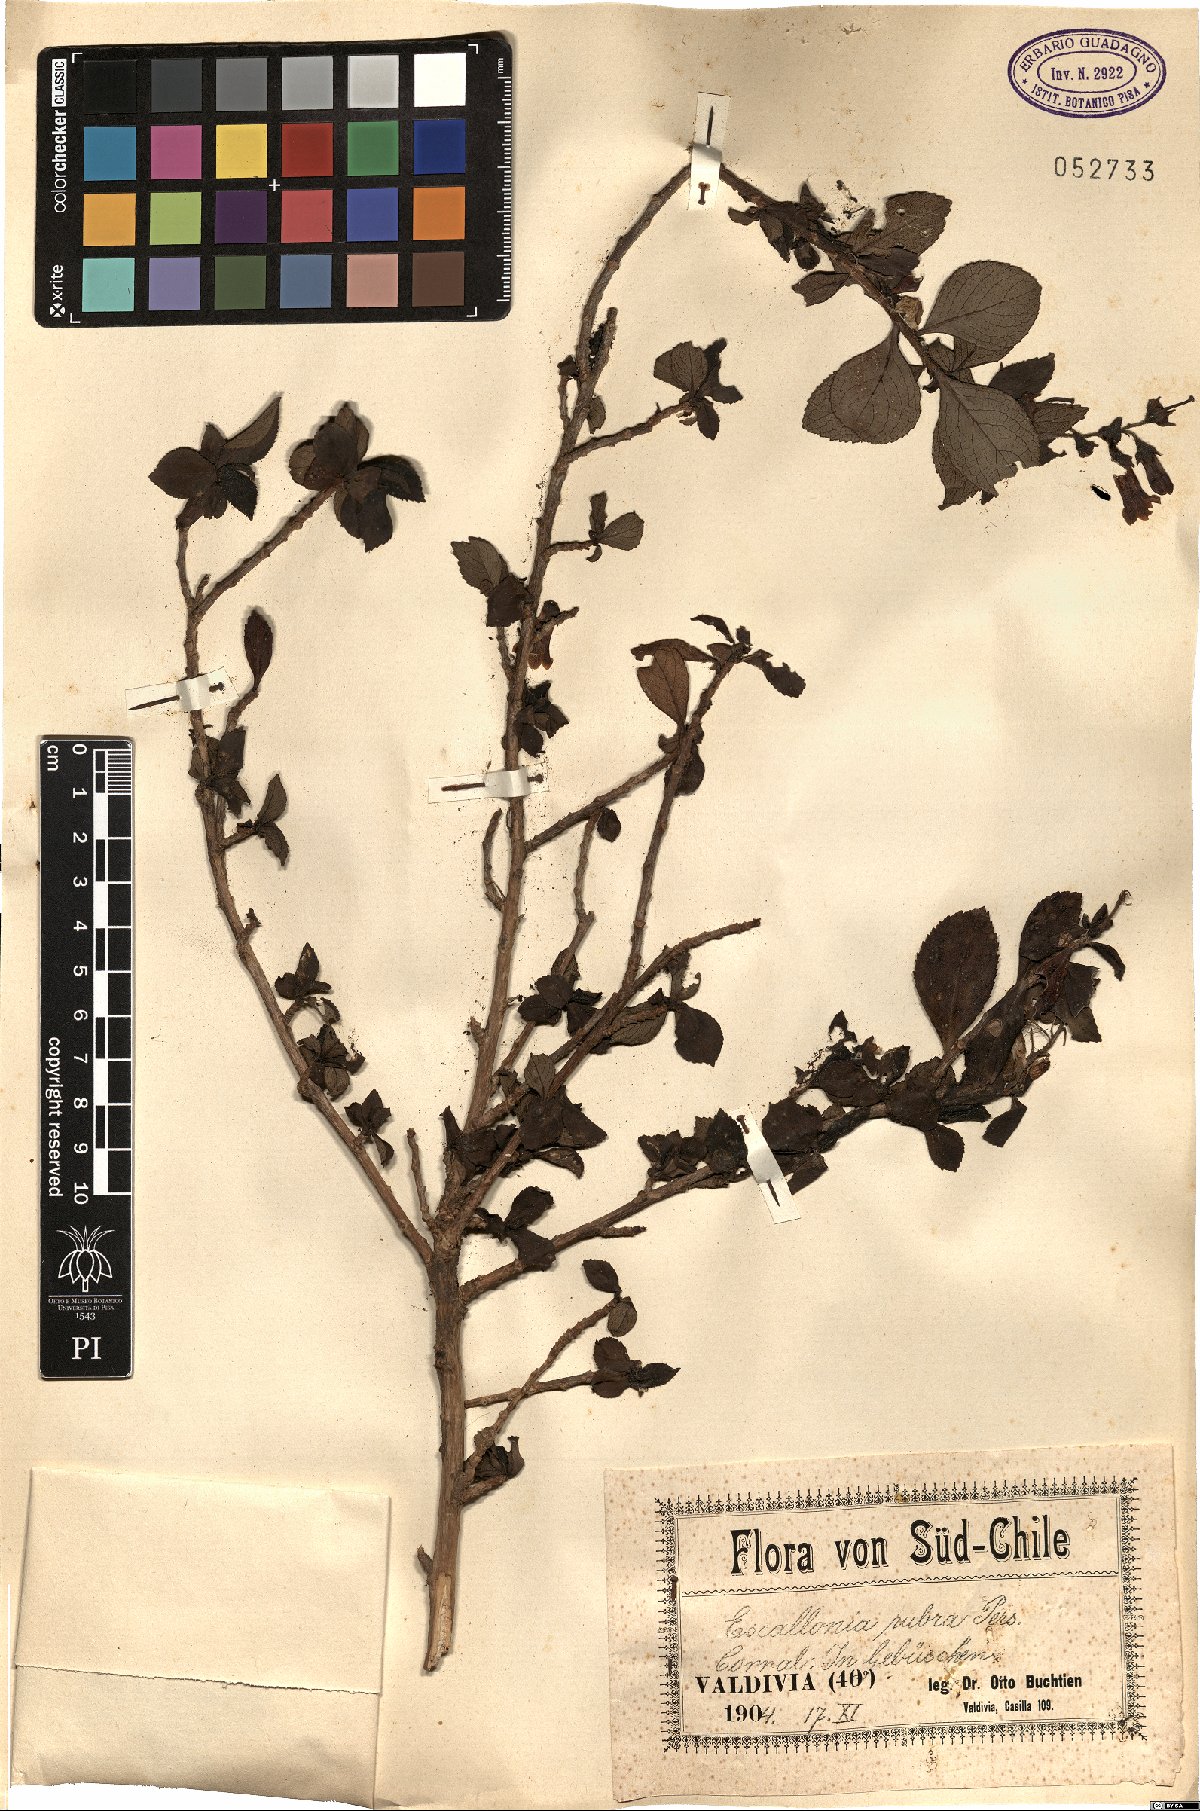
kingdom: Plantae
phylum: Tracheophyta
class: Magnoliopsida
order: Escalloniales
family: Escalloniaceae
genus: Escallonia
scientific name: Escallonia rubra
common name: Redclaws
